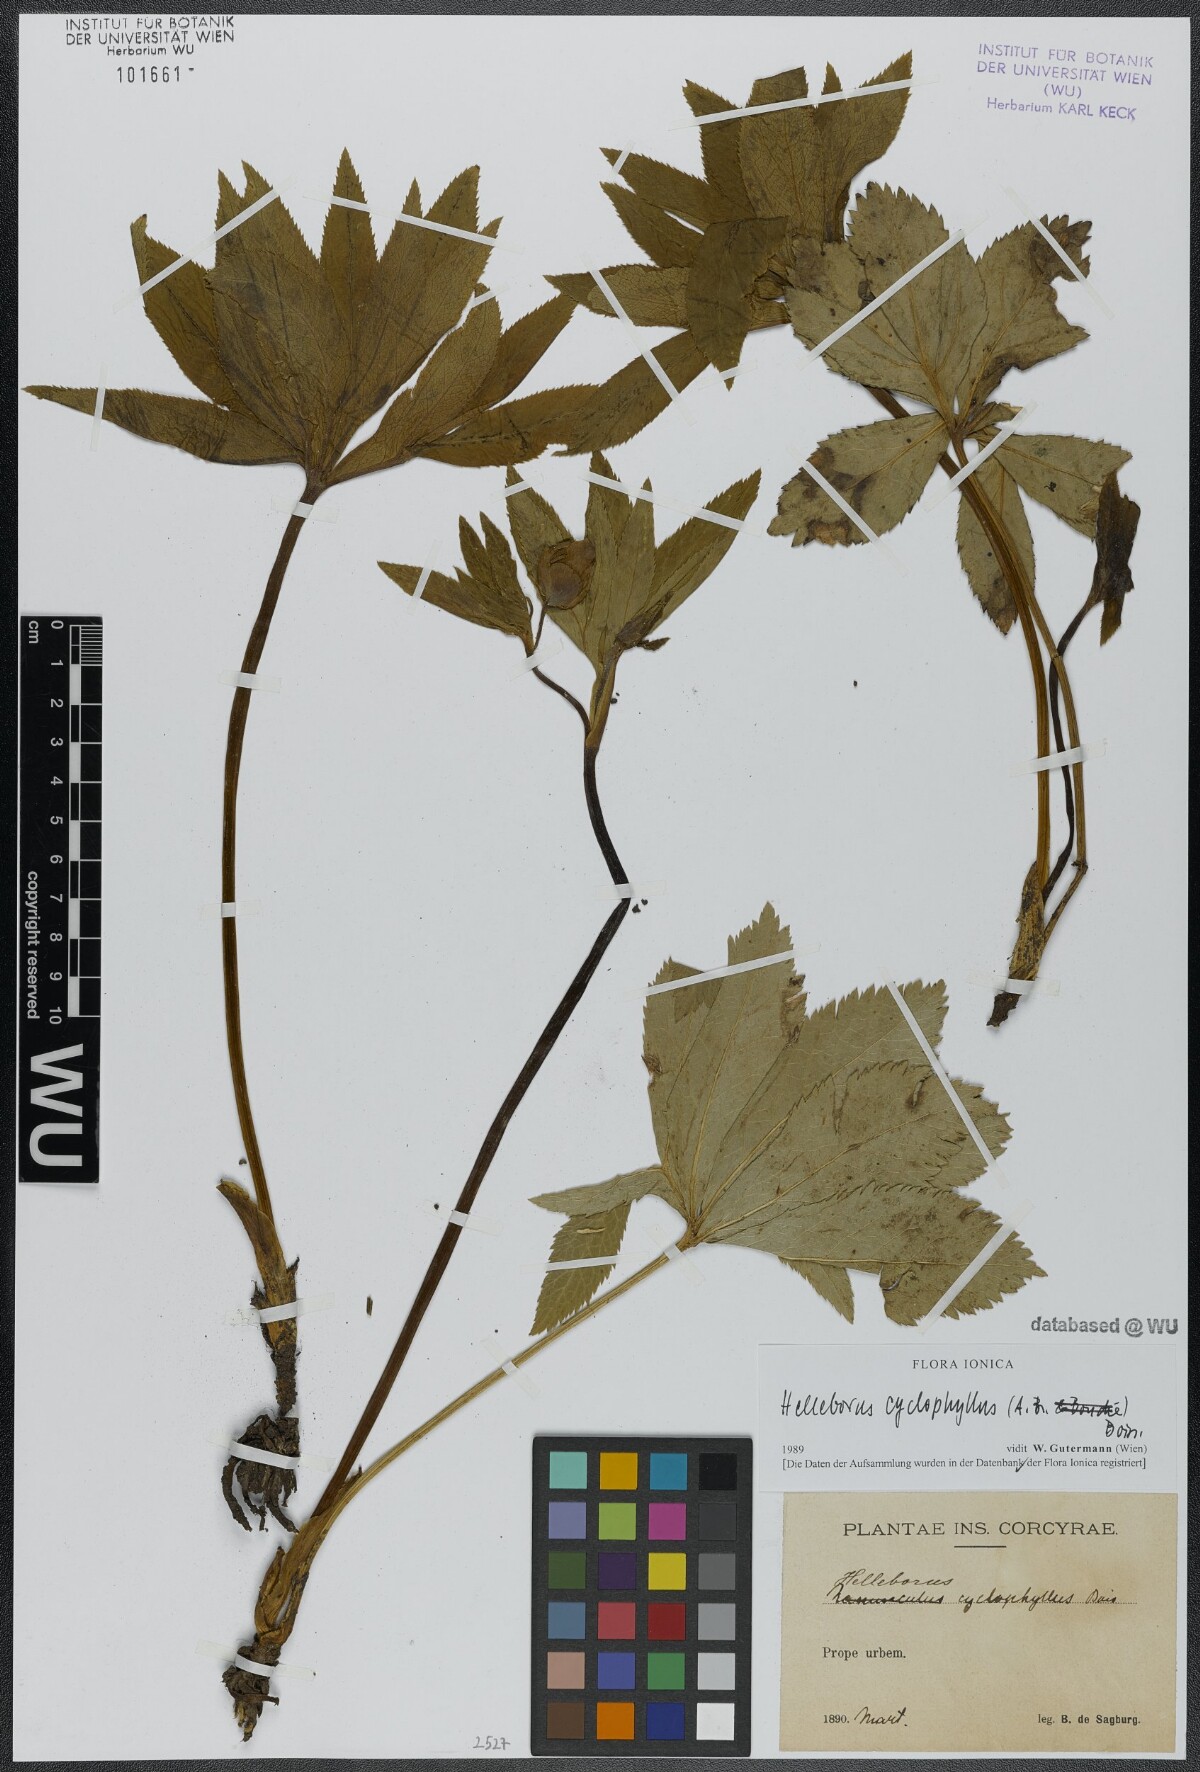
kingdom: Plantae
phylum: Tracheophyta
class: Magnoliopsida
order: Ranunculales
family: Ranunculaceae
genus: Helleborus
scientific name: Helleborus odorus
